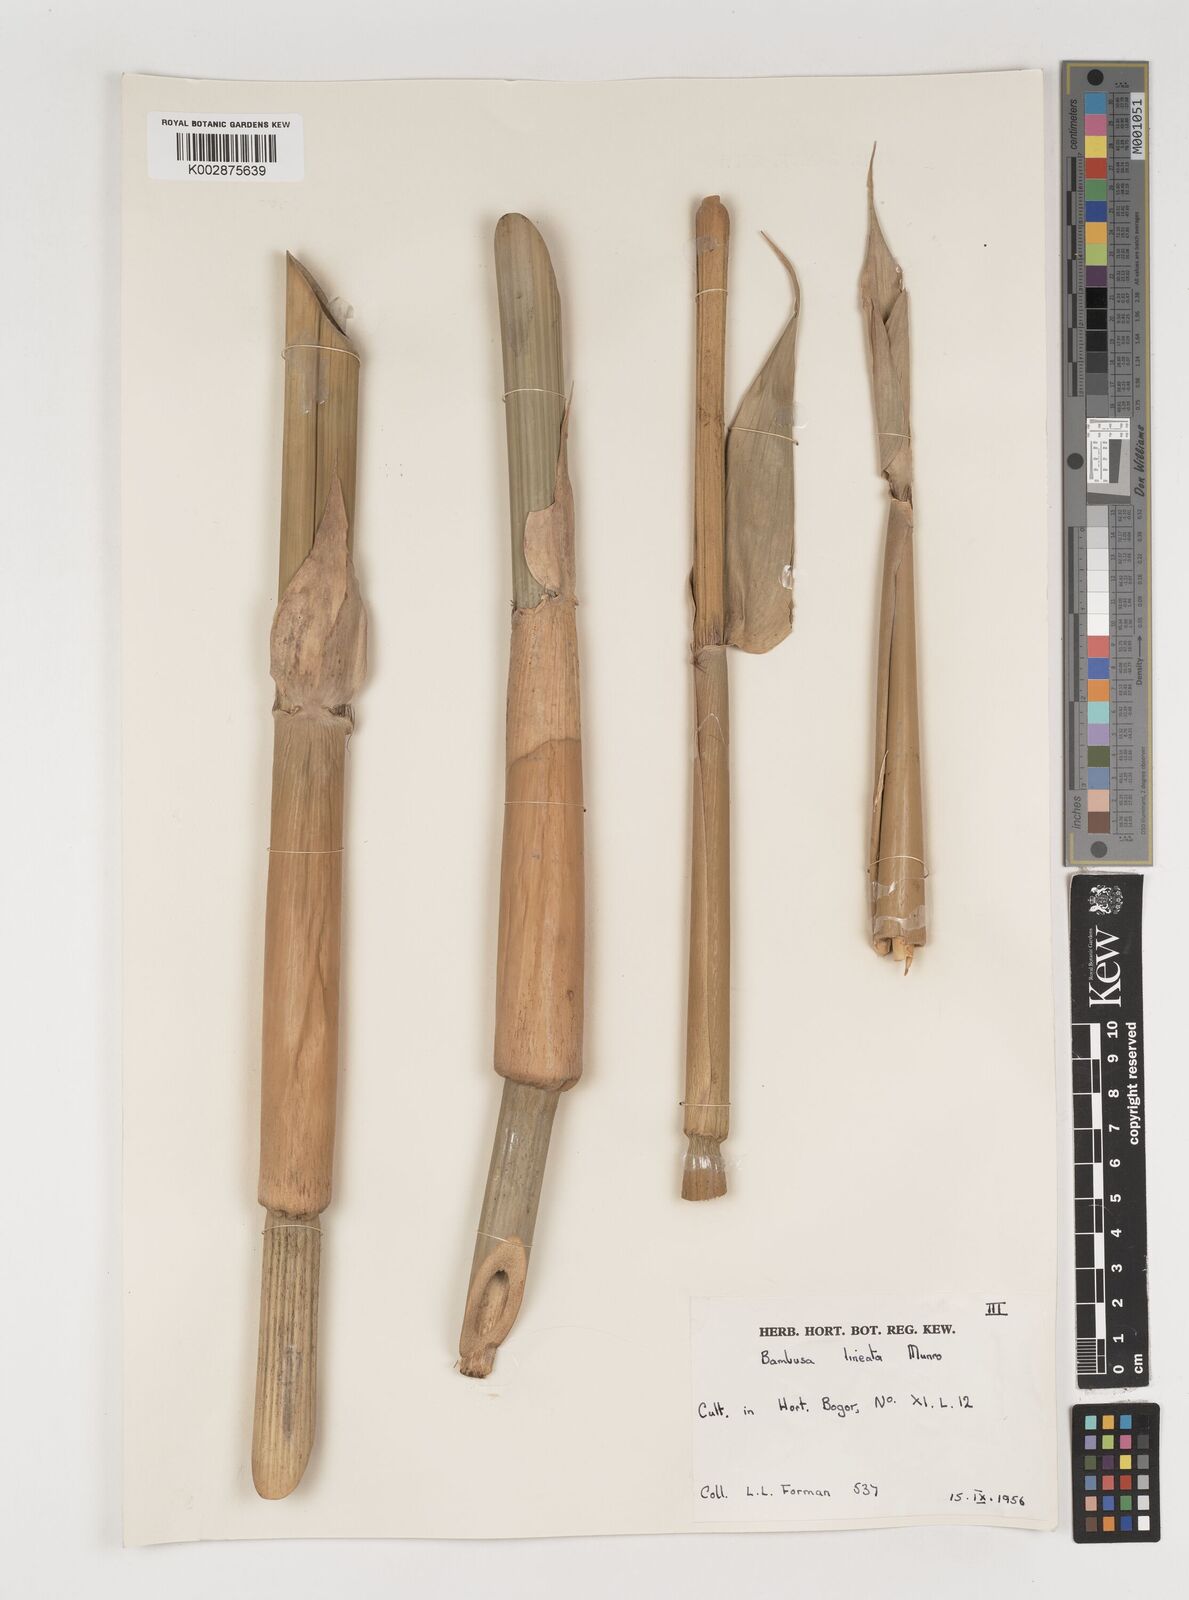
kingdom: Plantae
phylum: Tracheophyta
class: Liliopsida
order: Poales
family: Poaceae
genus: Neololeba
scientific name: Neololeba atra
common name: Cape bamboo
